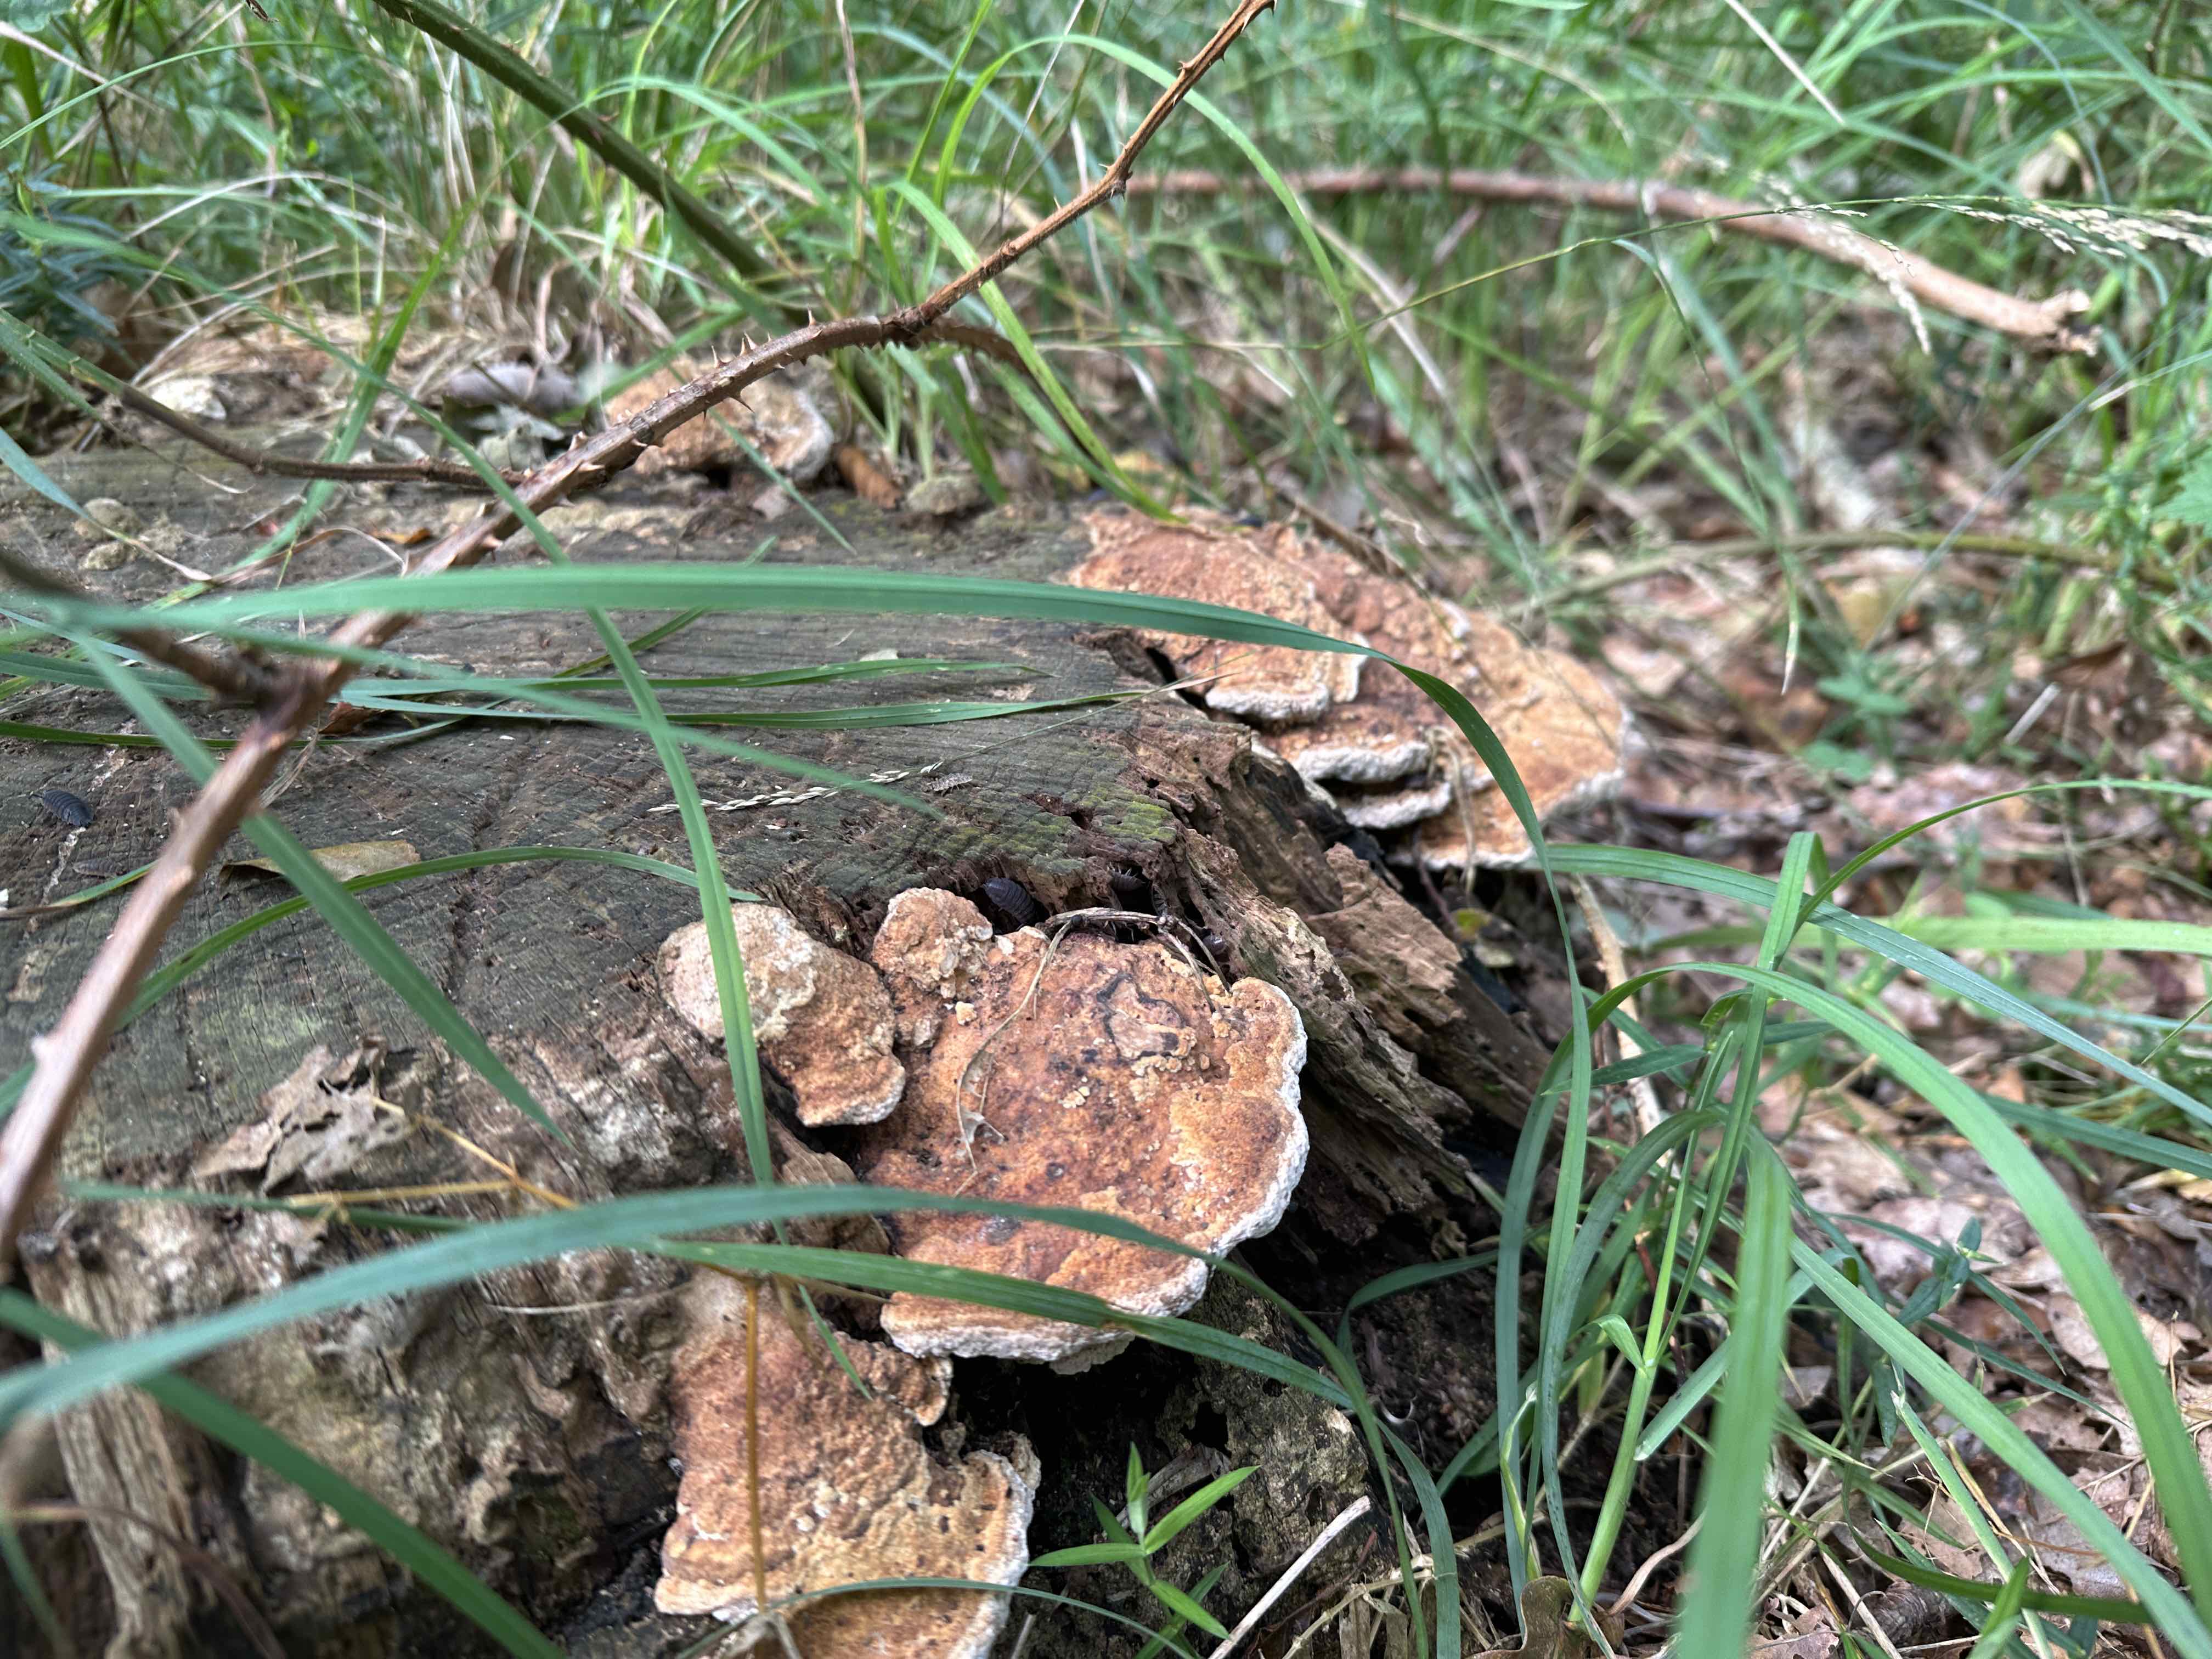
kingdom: Fungi
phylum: Basidiomycota
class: Agaricomycetes
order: Polyporales
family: Fomitopsidaceae
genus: Daedalea
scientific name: Daedalea quercina
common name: ege-labyrintsvamp
